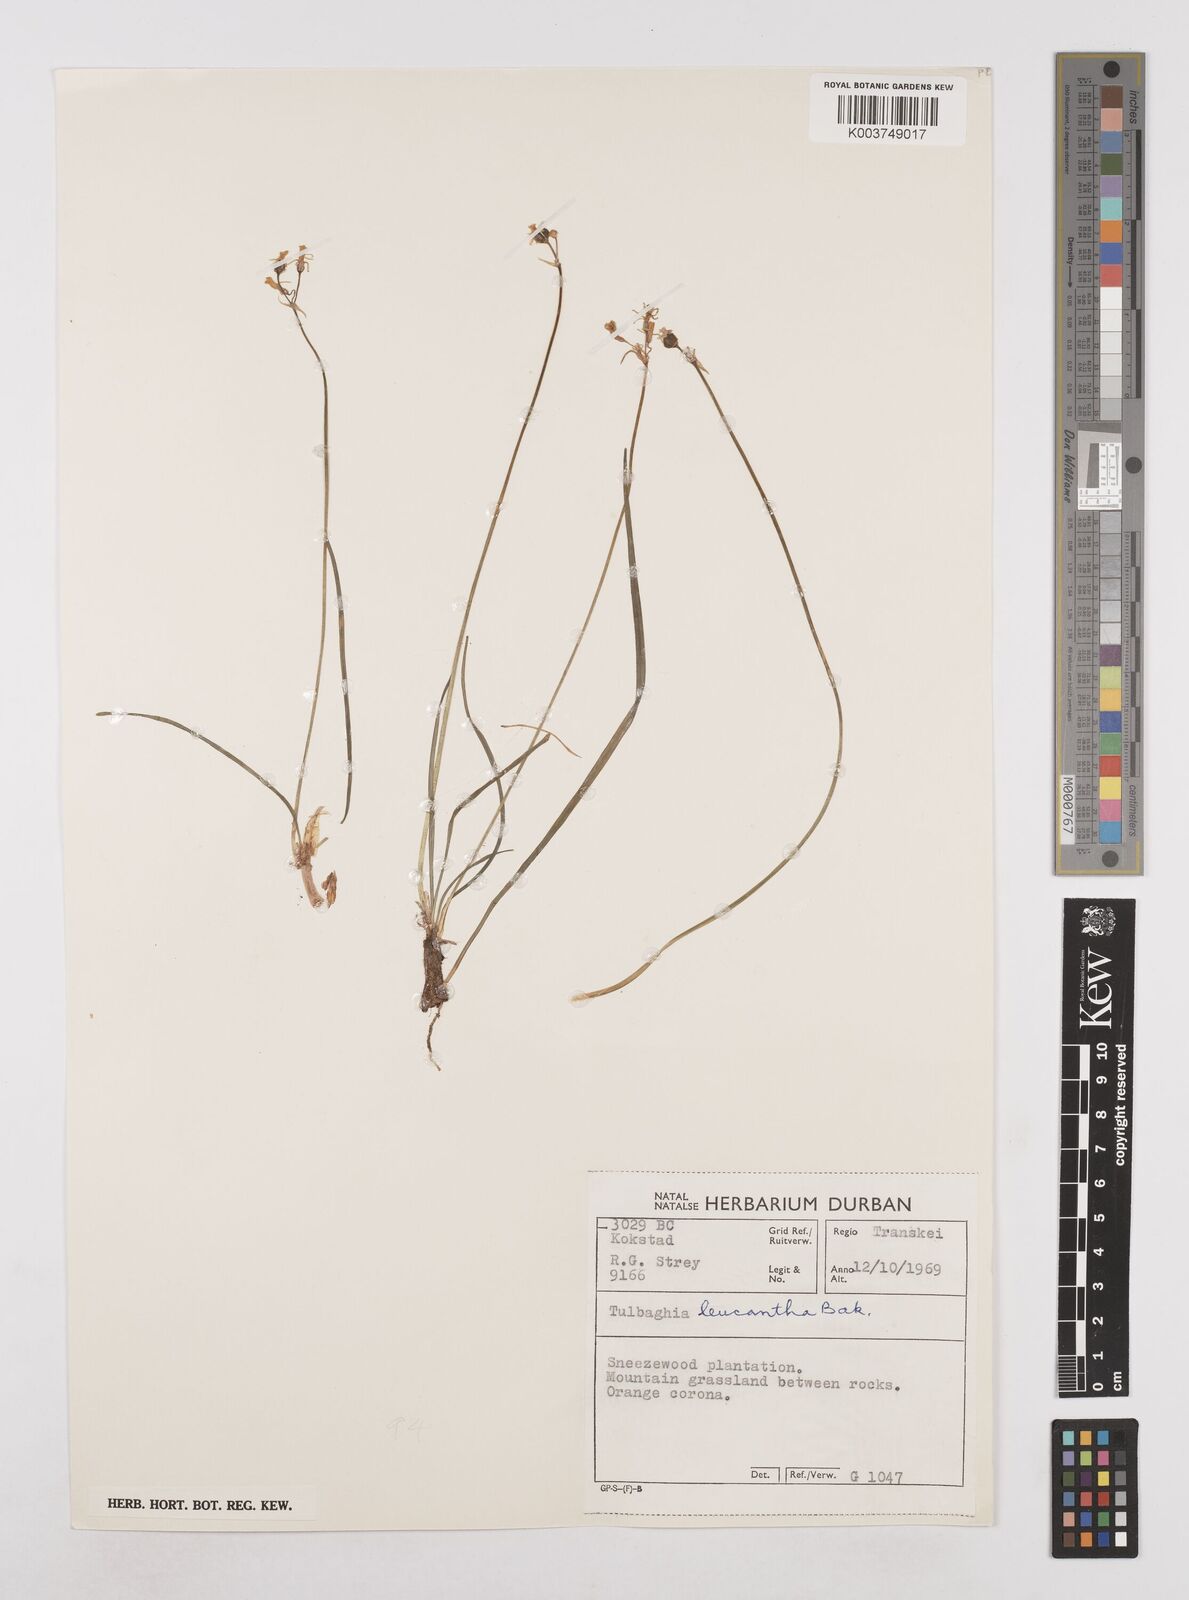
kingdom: Plantae
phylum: Tracheophyta
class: Liliopsida
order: Asparagales
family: Amaryllidaceae
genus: Tulbaghia
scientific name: Tulbaghia leucantha
